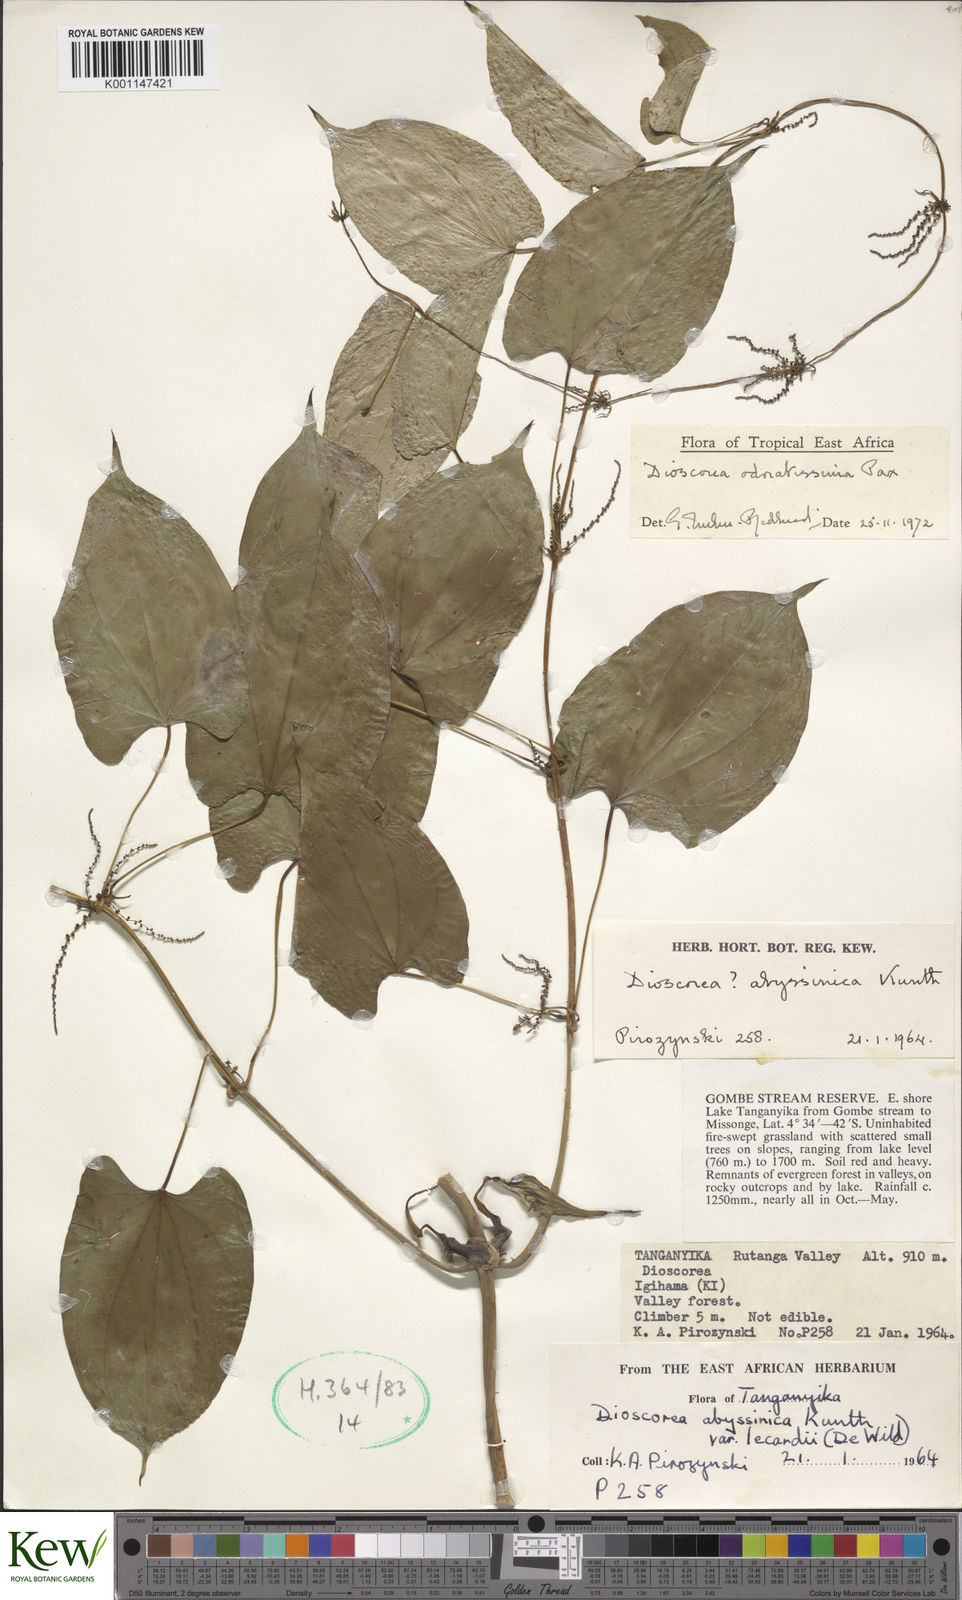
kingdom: Plantae
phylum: Tracheophyta
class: Liliopsida
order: Dioscoreales
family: Dioscoreaceae
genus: Dioscorea
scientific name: Dioscorea praehensilis
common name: Bush yam
